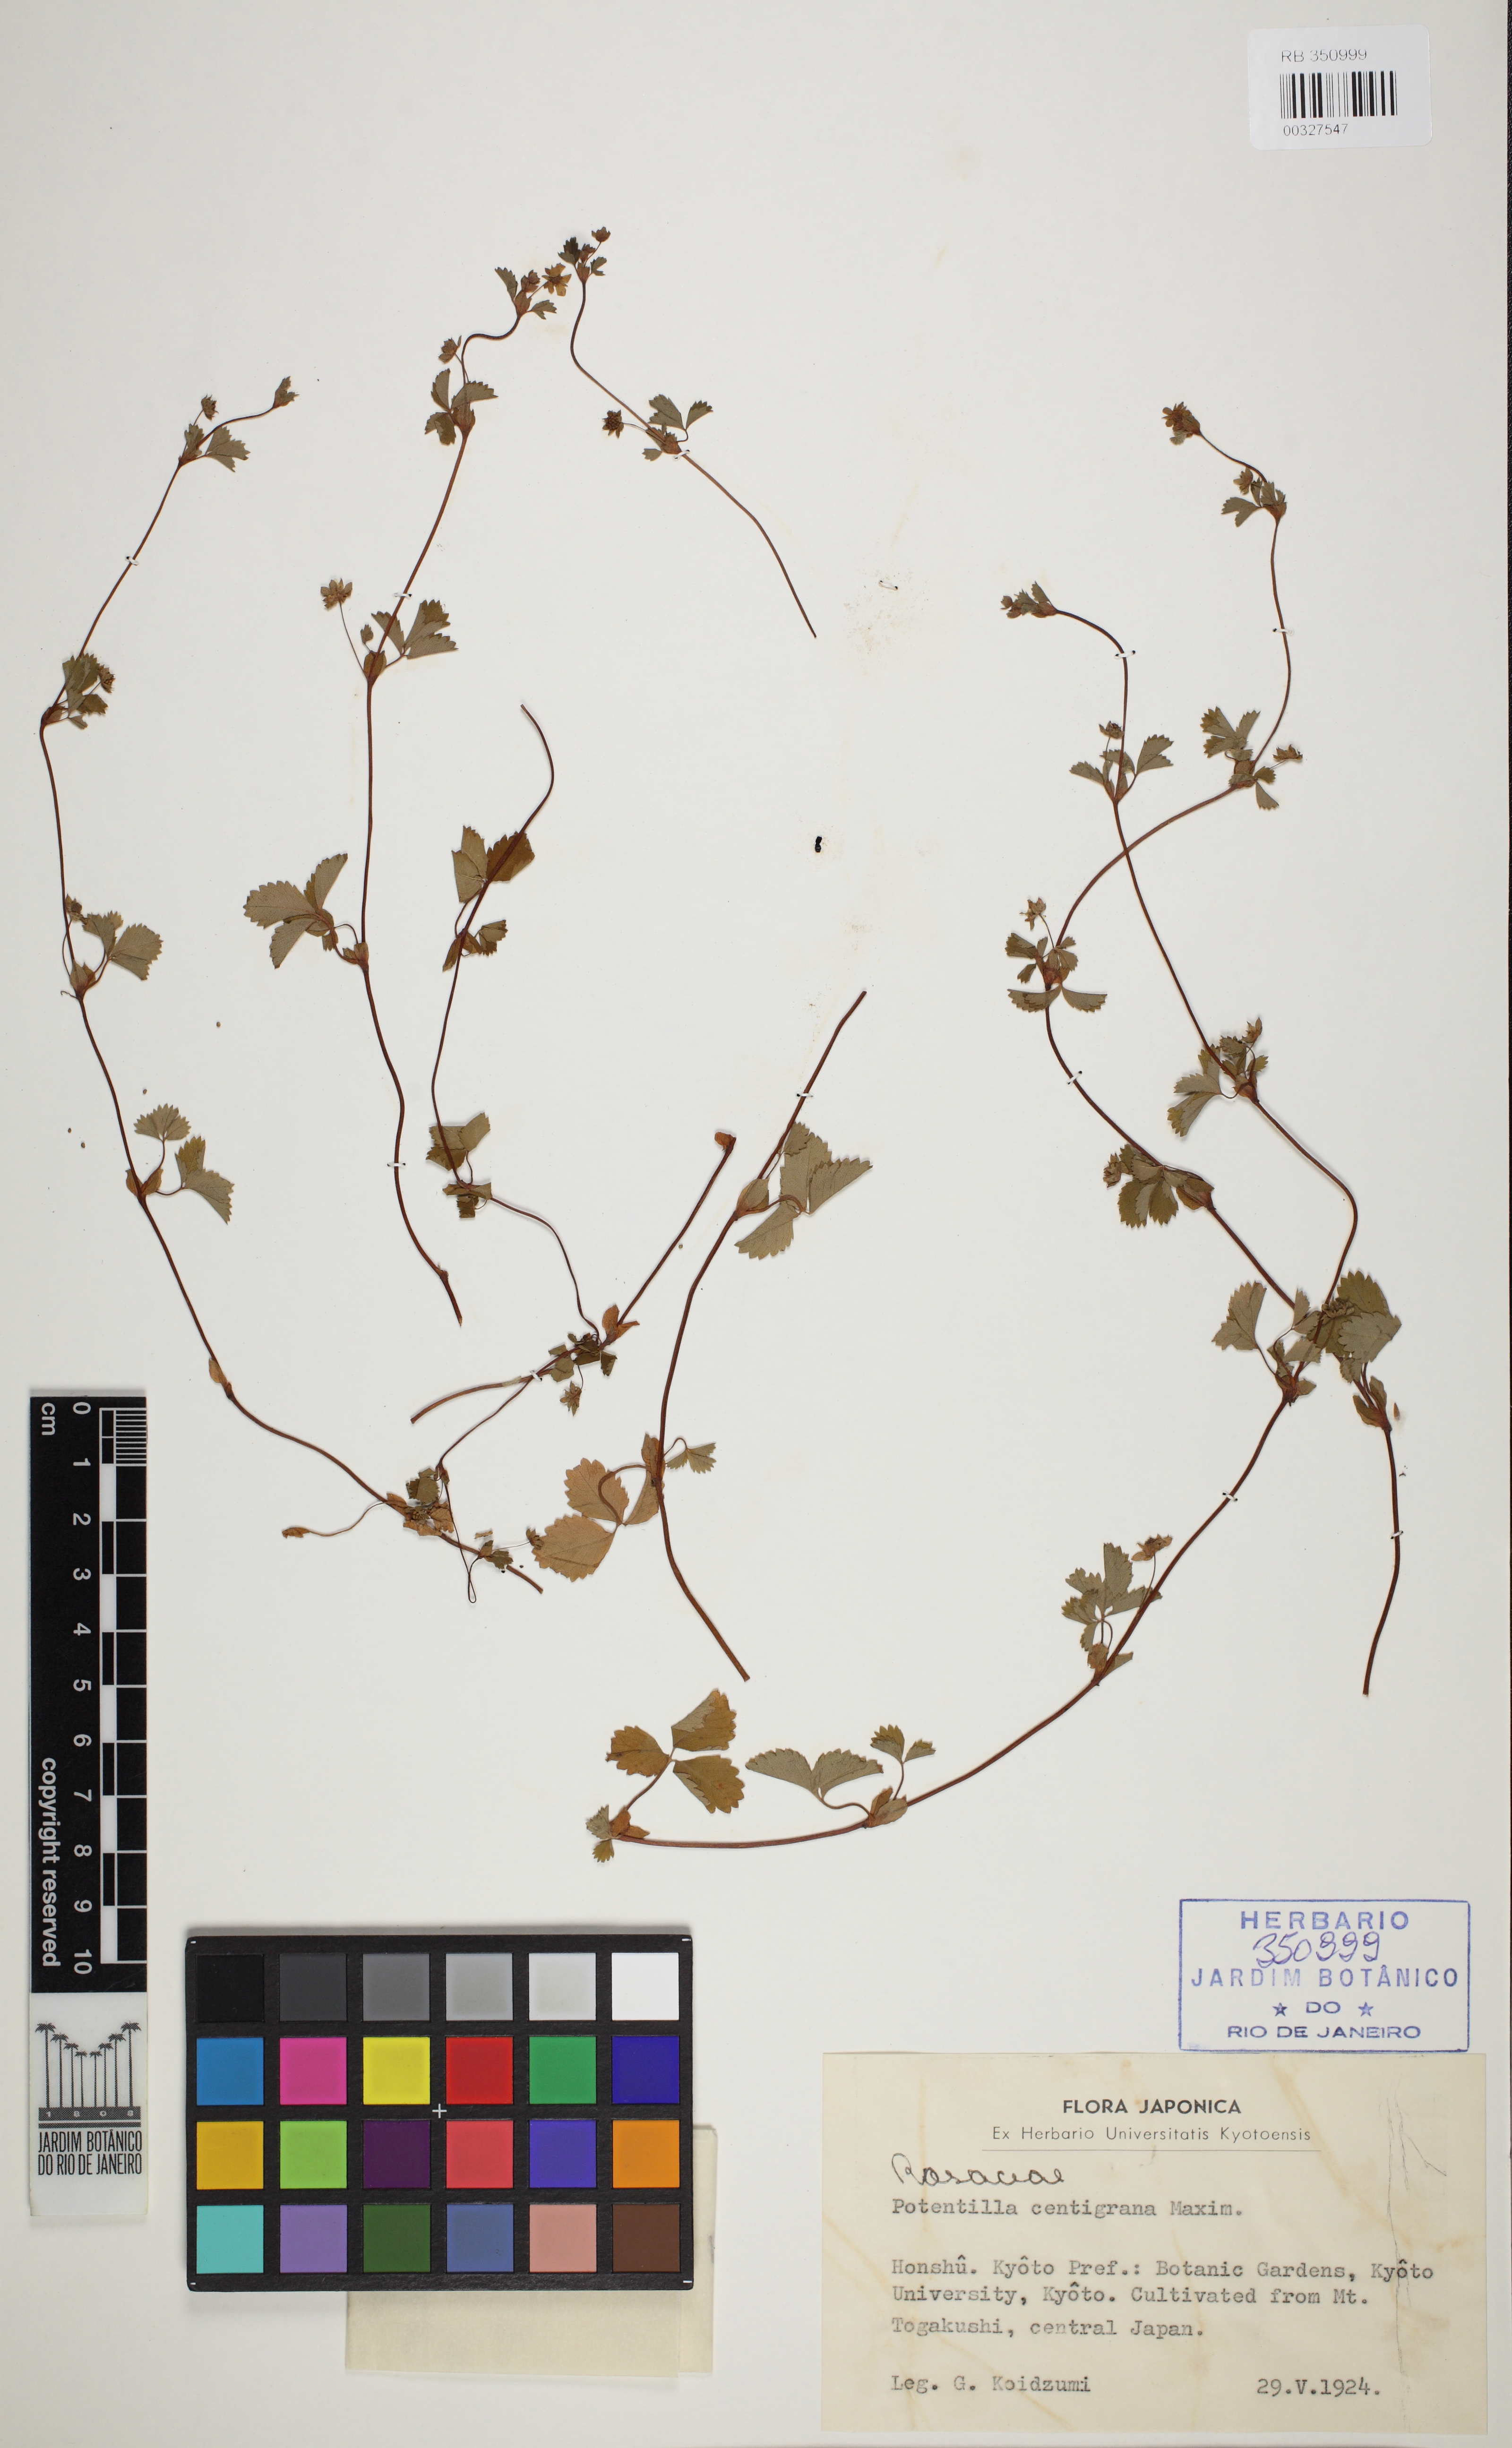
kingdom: Plantae
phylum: Tracheophyta
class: Magnoliopsida
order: Rosales
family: Rosaceae
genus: Potentilla
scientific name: Potentilla centigrana
